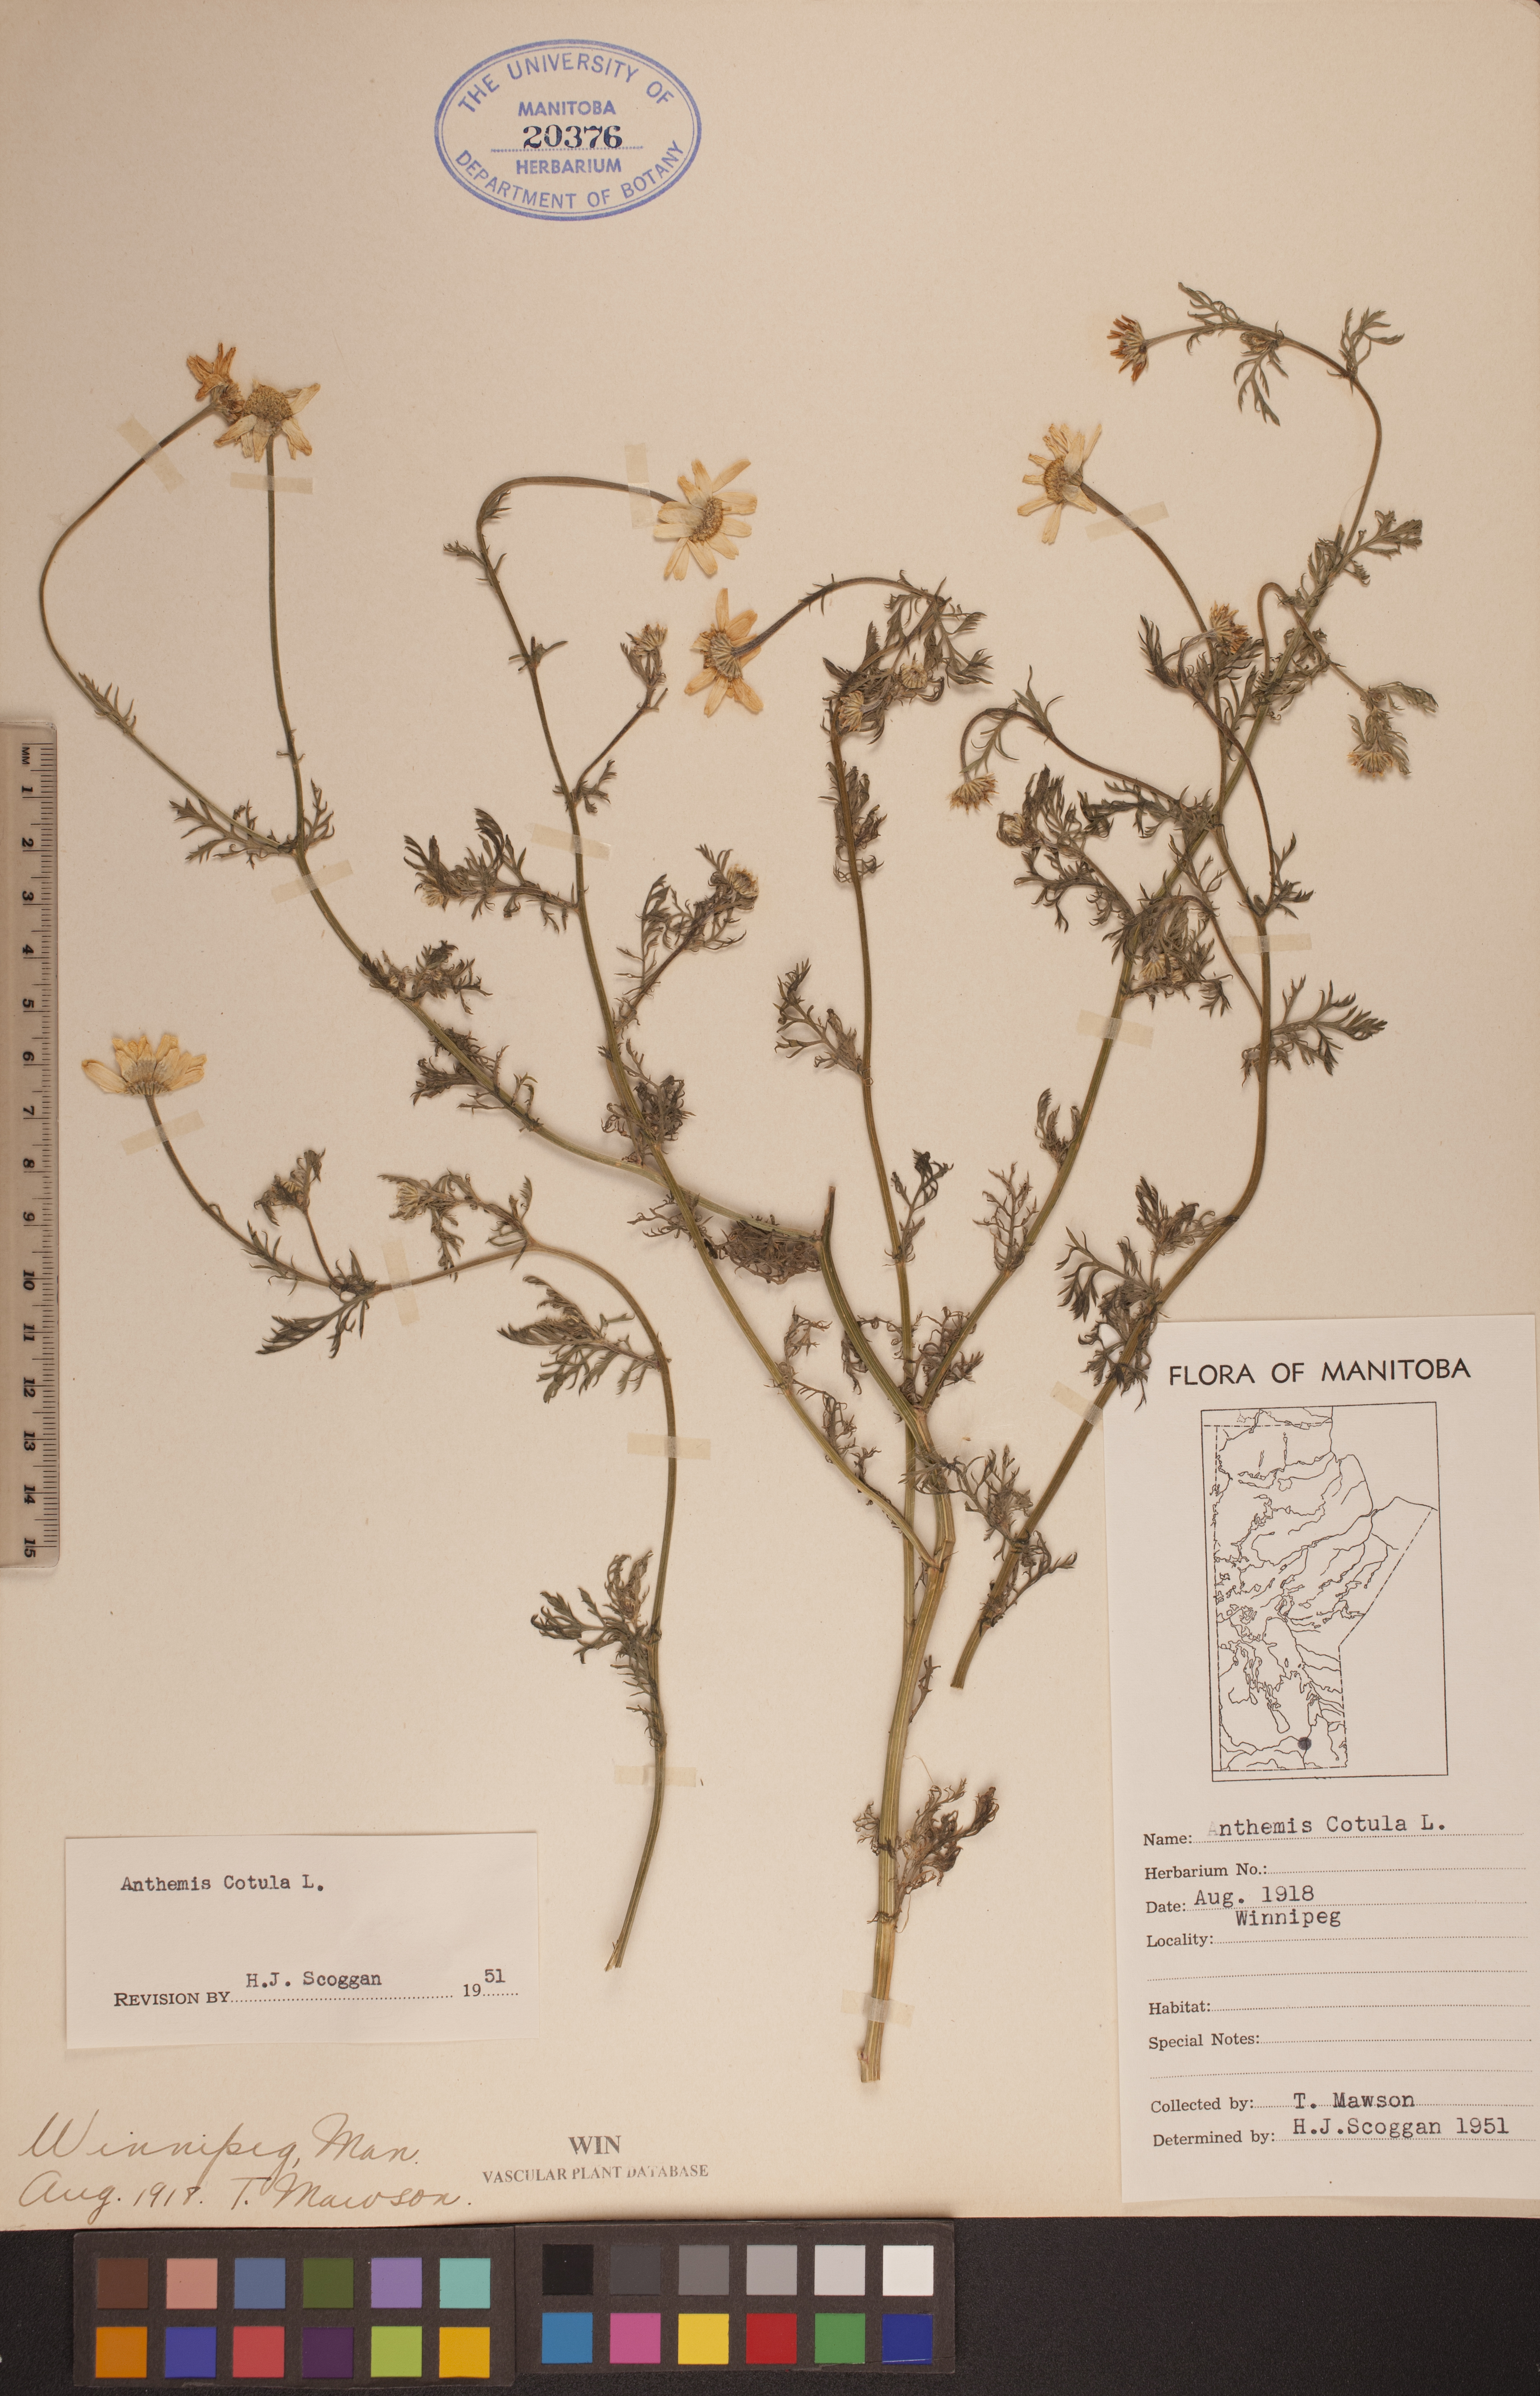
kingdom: Plantae
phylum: Tracheophyta
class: Magnoliopsida
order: Asterales
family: Asteraceae
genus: Anthemis
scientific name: Anthemis cotula
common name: Stinking chamomile
